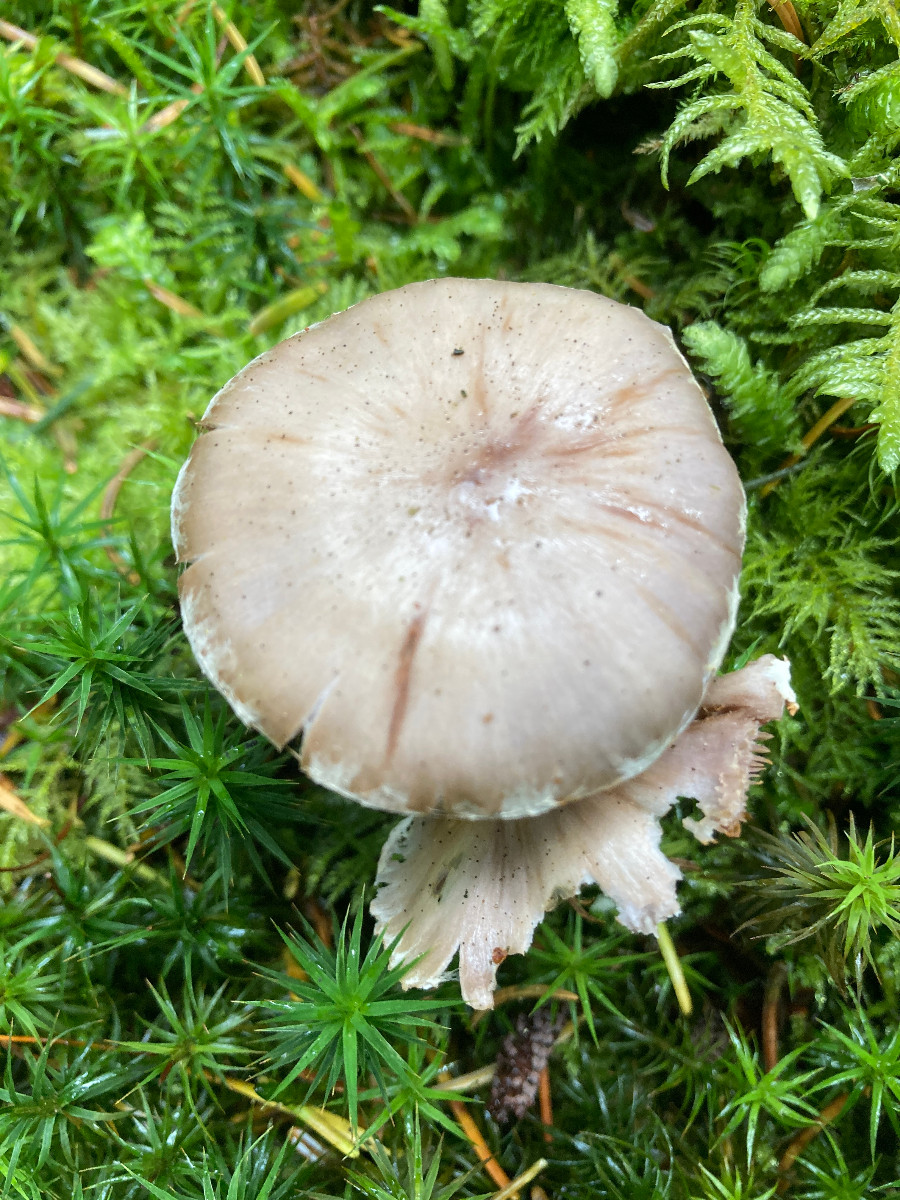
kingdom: Fungi
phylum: Basidiomycota
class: Agaricomycetes
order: Agaricales
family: Cortinariaceae
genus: Cortinarius
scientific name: Cortinarius
